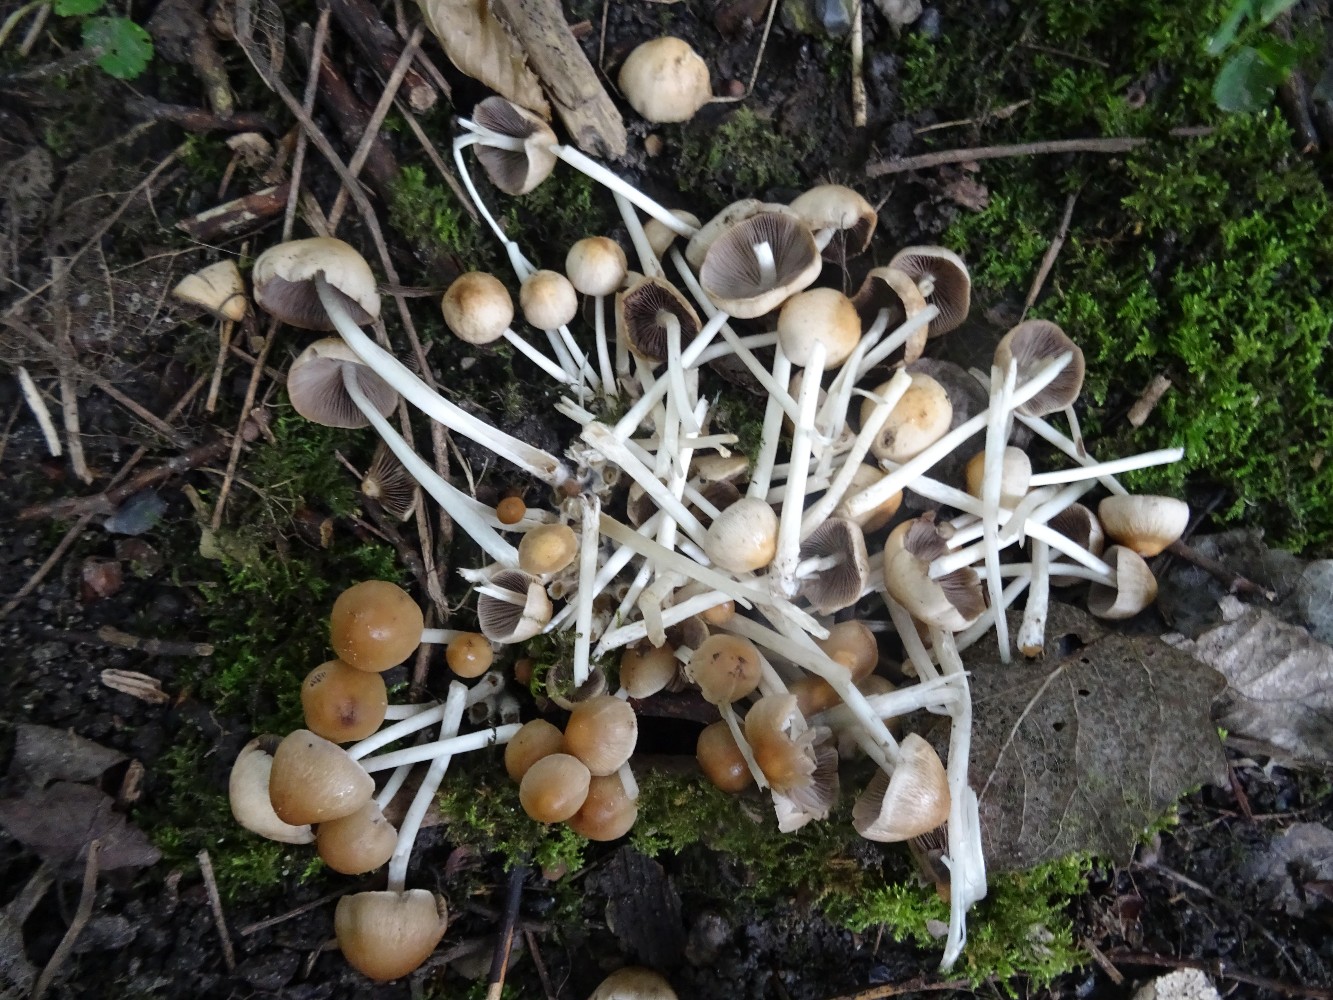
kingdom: Fungi
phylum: Basidiomycota
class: Agaricomycetes
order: Agaricales
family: Psathyrellaceae
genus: Britzelmayria
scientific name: Britzelmayria multipedata
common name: knippe-mørkhat
